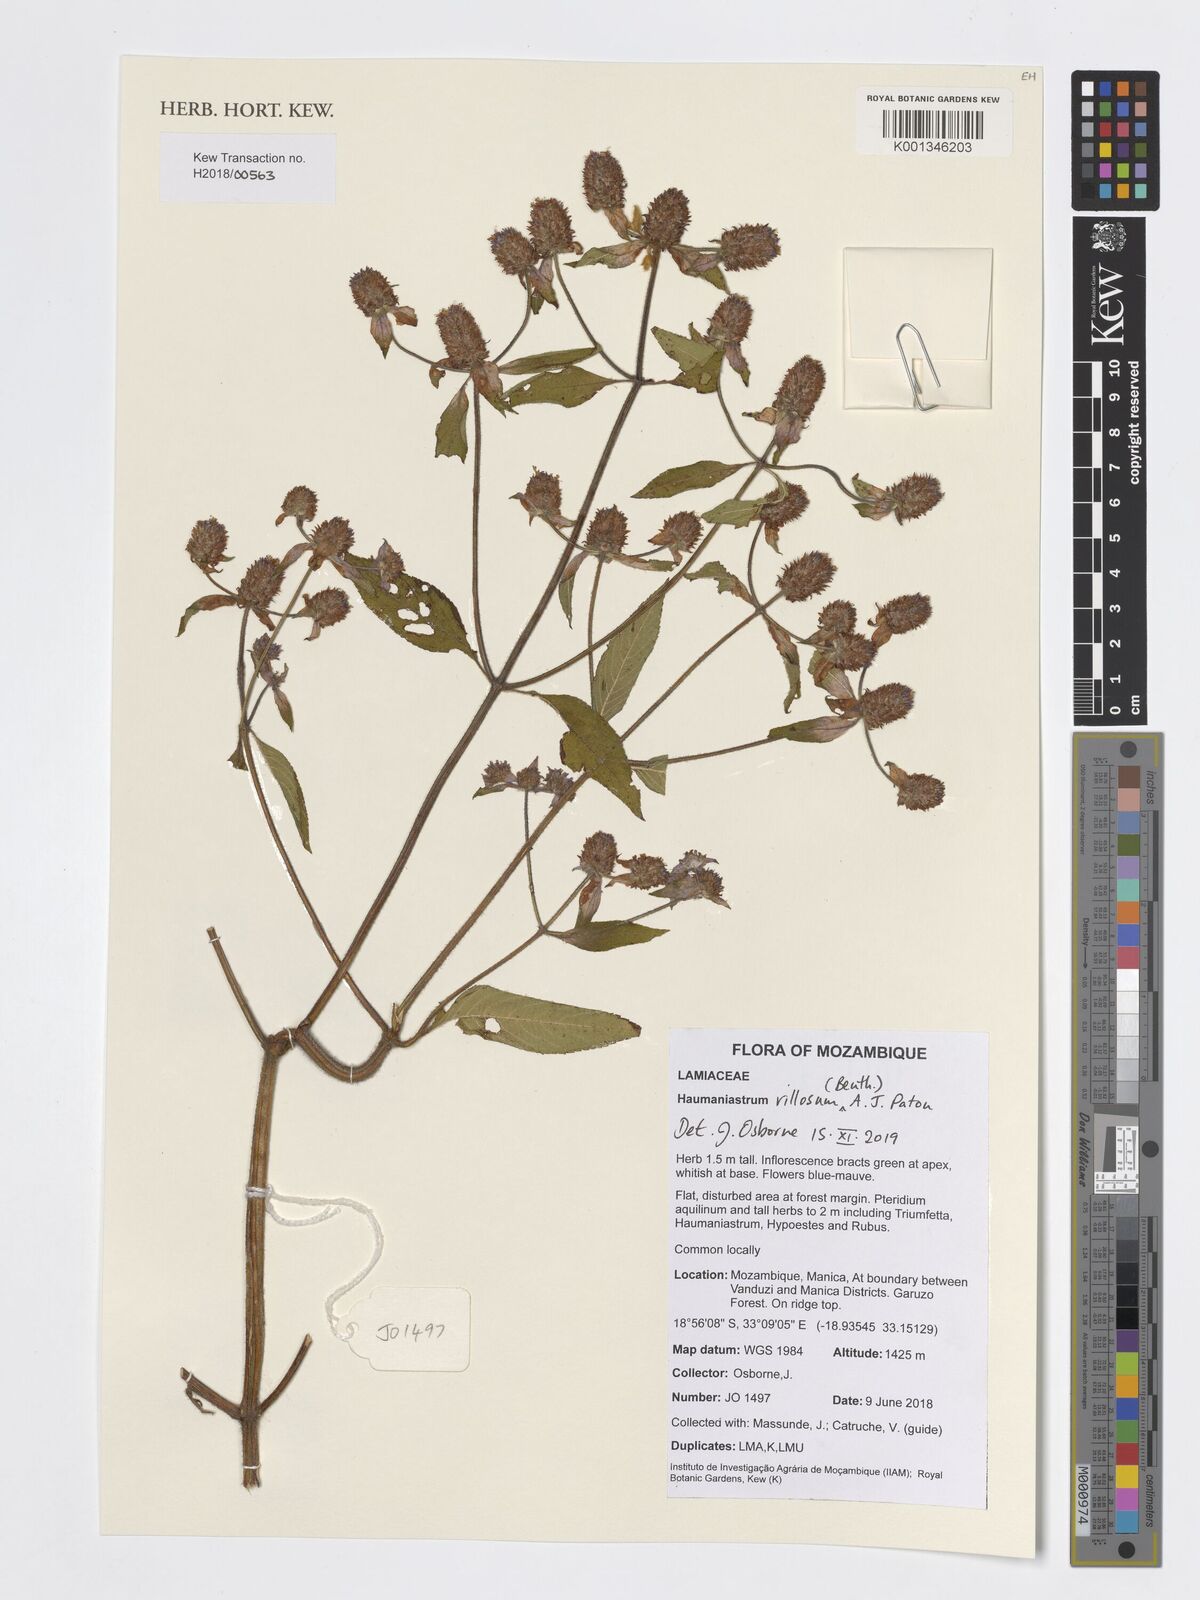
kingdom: Plantae
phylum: Tracheophyta
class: Magnoliopsida
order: Lamiales
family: Lamiaceae
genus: Haumaniastrum
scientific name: Haumaniastrum villosum
